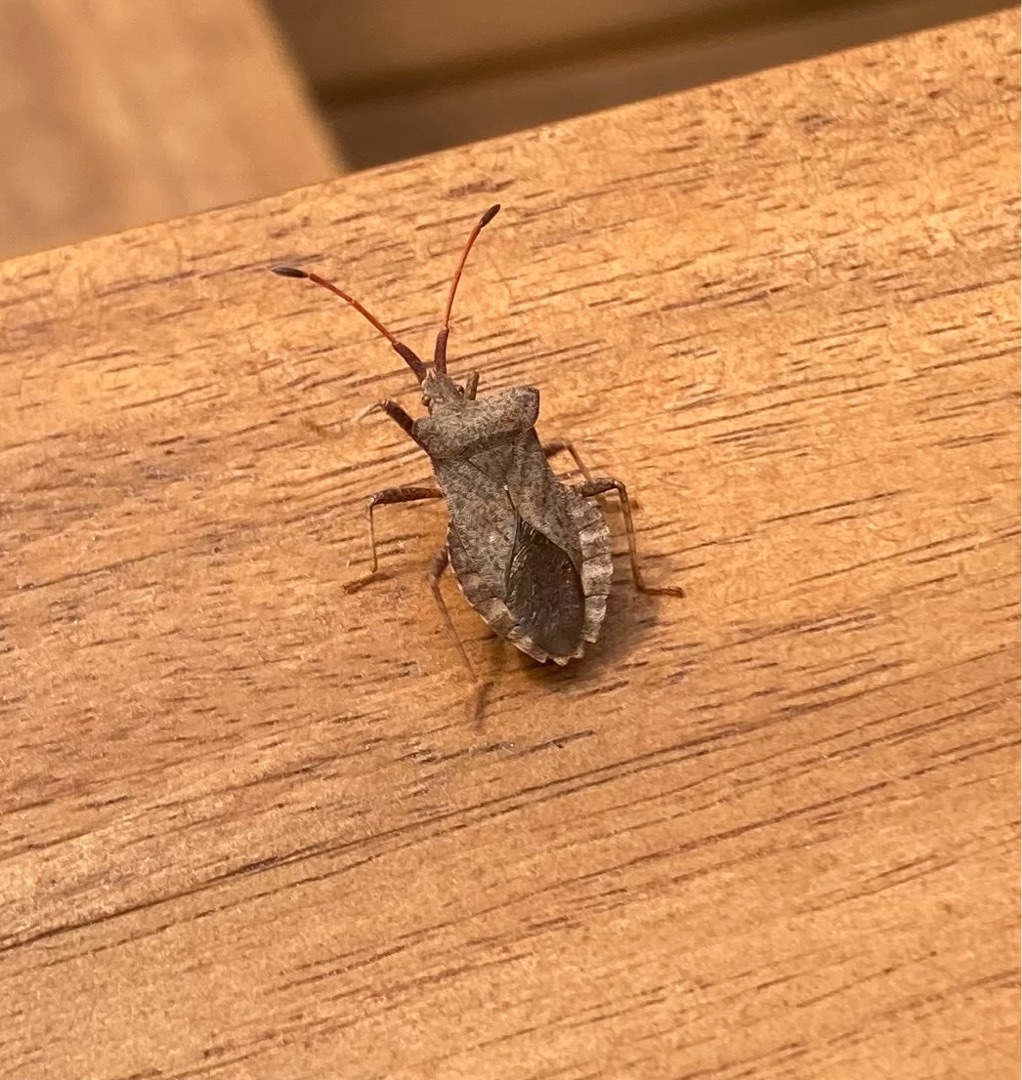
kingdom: Animalia
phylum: Arthropoda
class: Insecta
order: Hemiptera
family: Coreidae
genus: Coreus
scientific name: Coreus marginatus
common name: Skræppetæge
